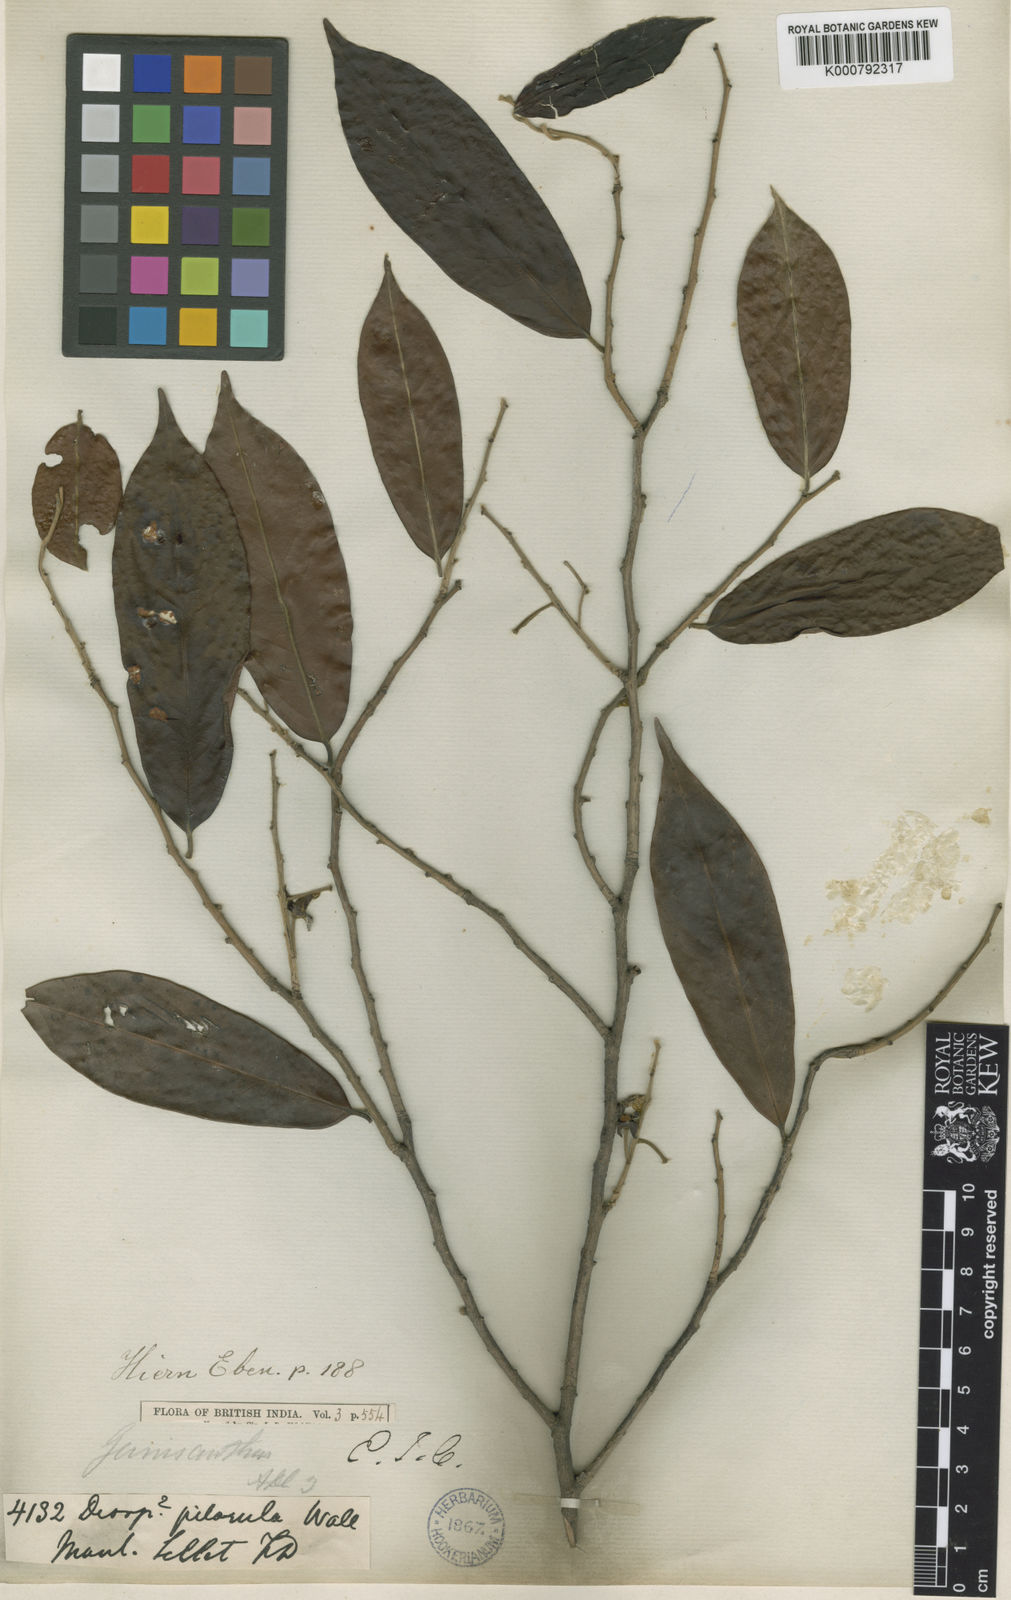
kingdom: Plantae
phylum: Tracheophyta
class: Magnoliopsida
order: Ericales
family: Ebenaceae
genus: Diospyros
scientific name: Diospyros pilosiuscula
